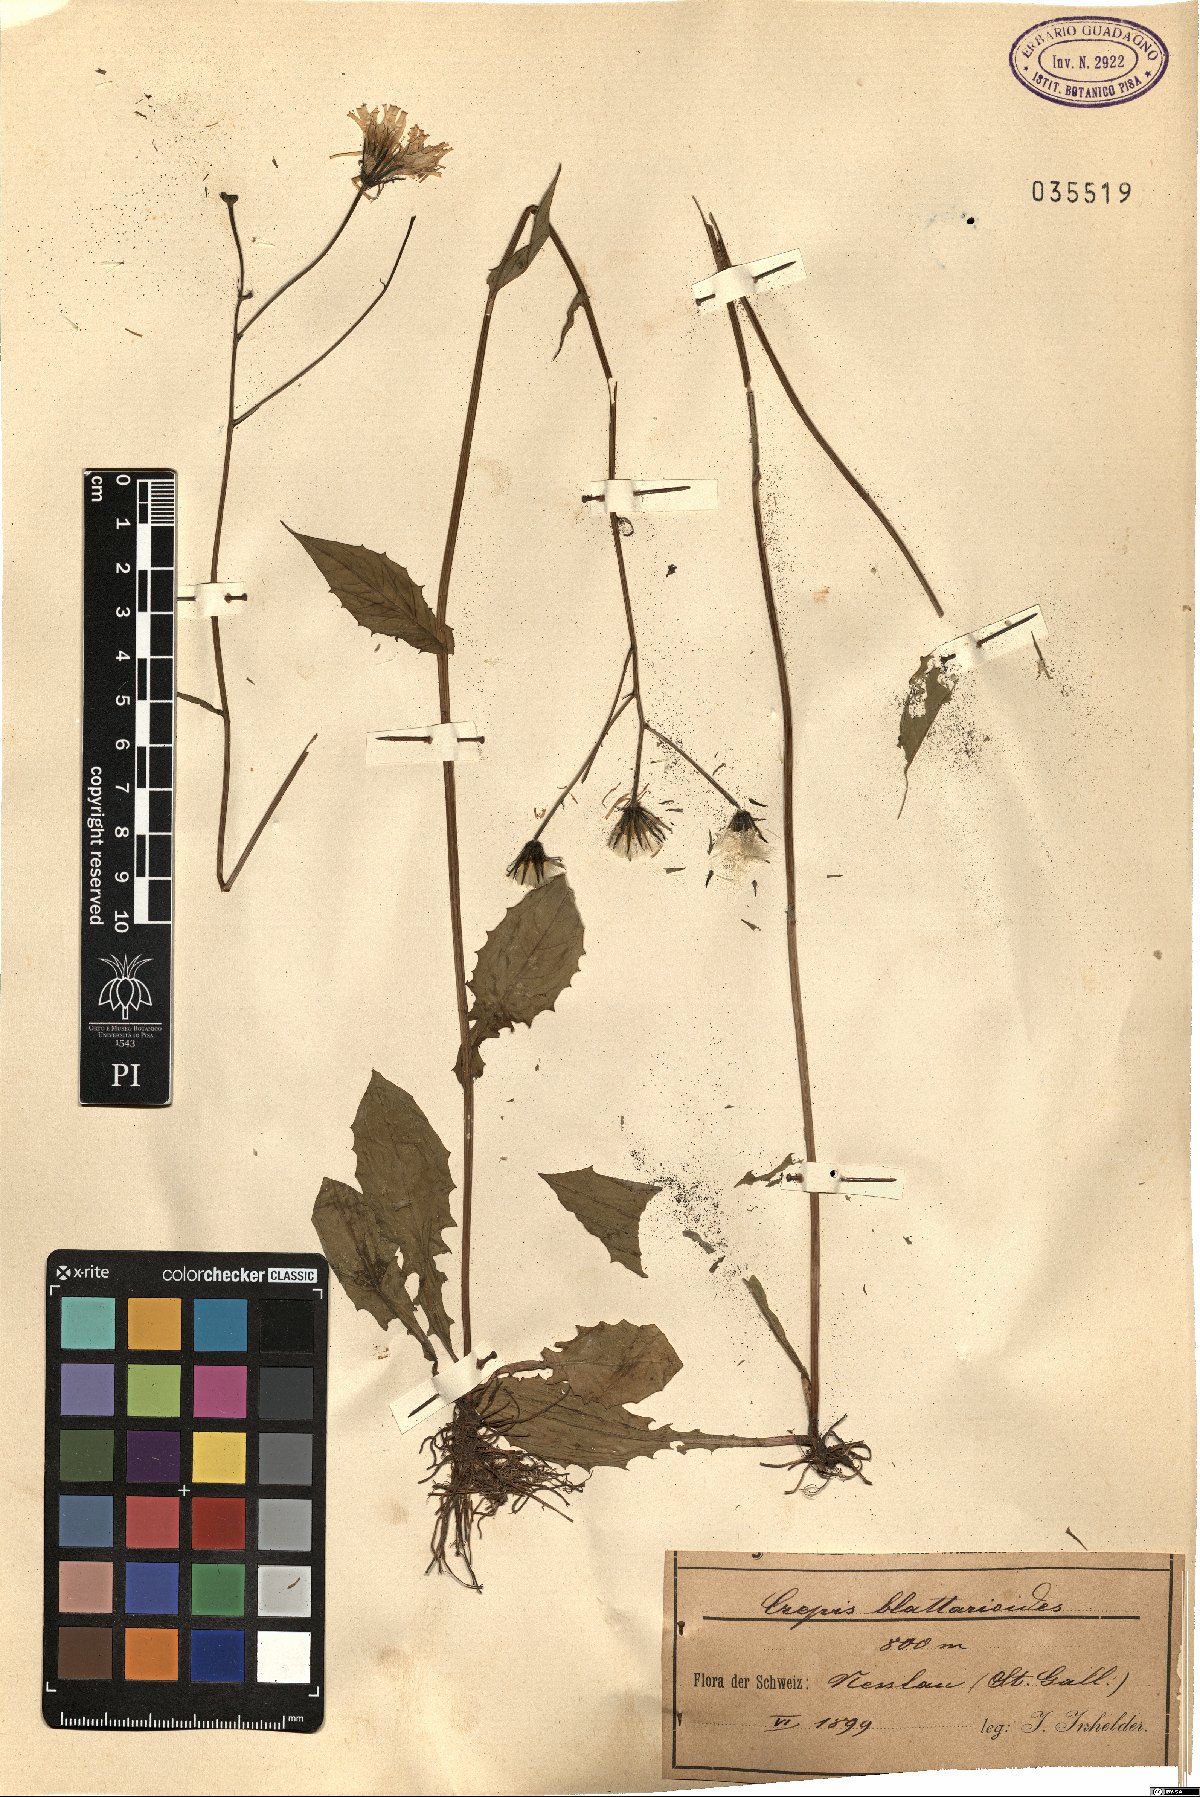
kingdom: Plantae
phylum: Tracheophyta
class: Magnoliopsida
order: Asterales
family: Asteraceae
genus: Crepis
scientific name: Crepis blattarioides
